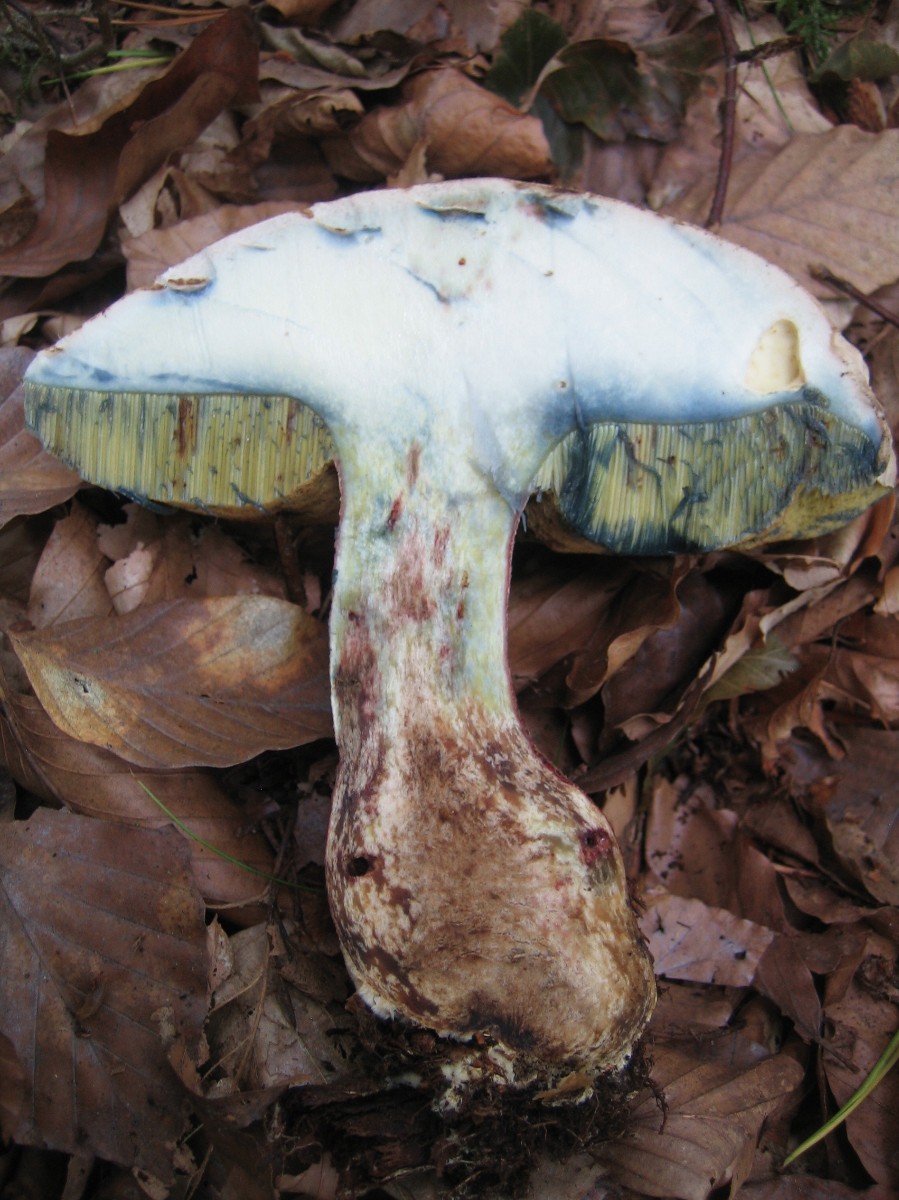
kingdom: Fungi
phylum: Basidiomycota
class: Agaricomycetes
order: Boletales
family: Boletaceae
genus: Caloboletus
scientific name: Caloboletus calopus
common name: skønfodet rørhat
